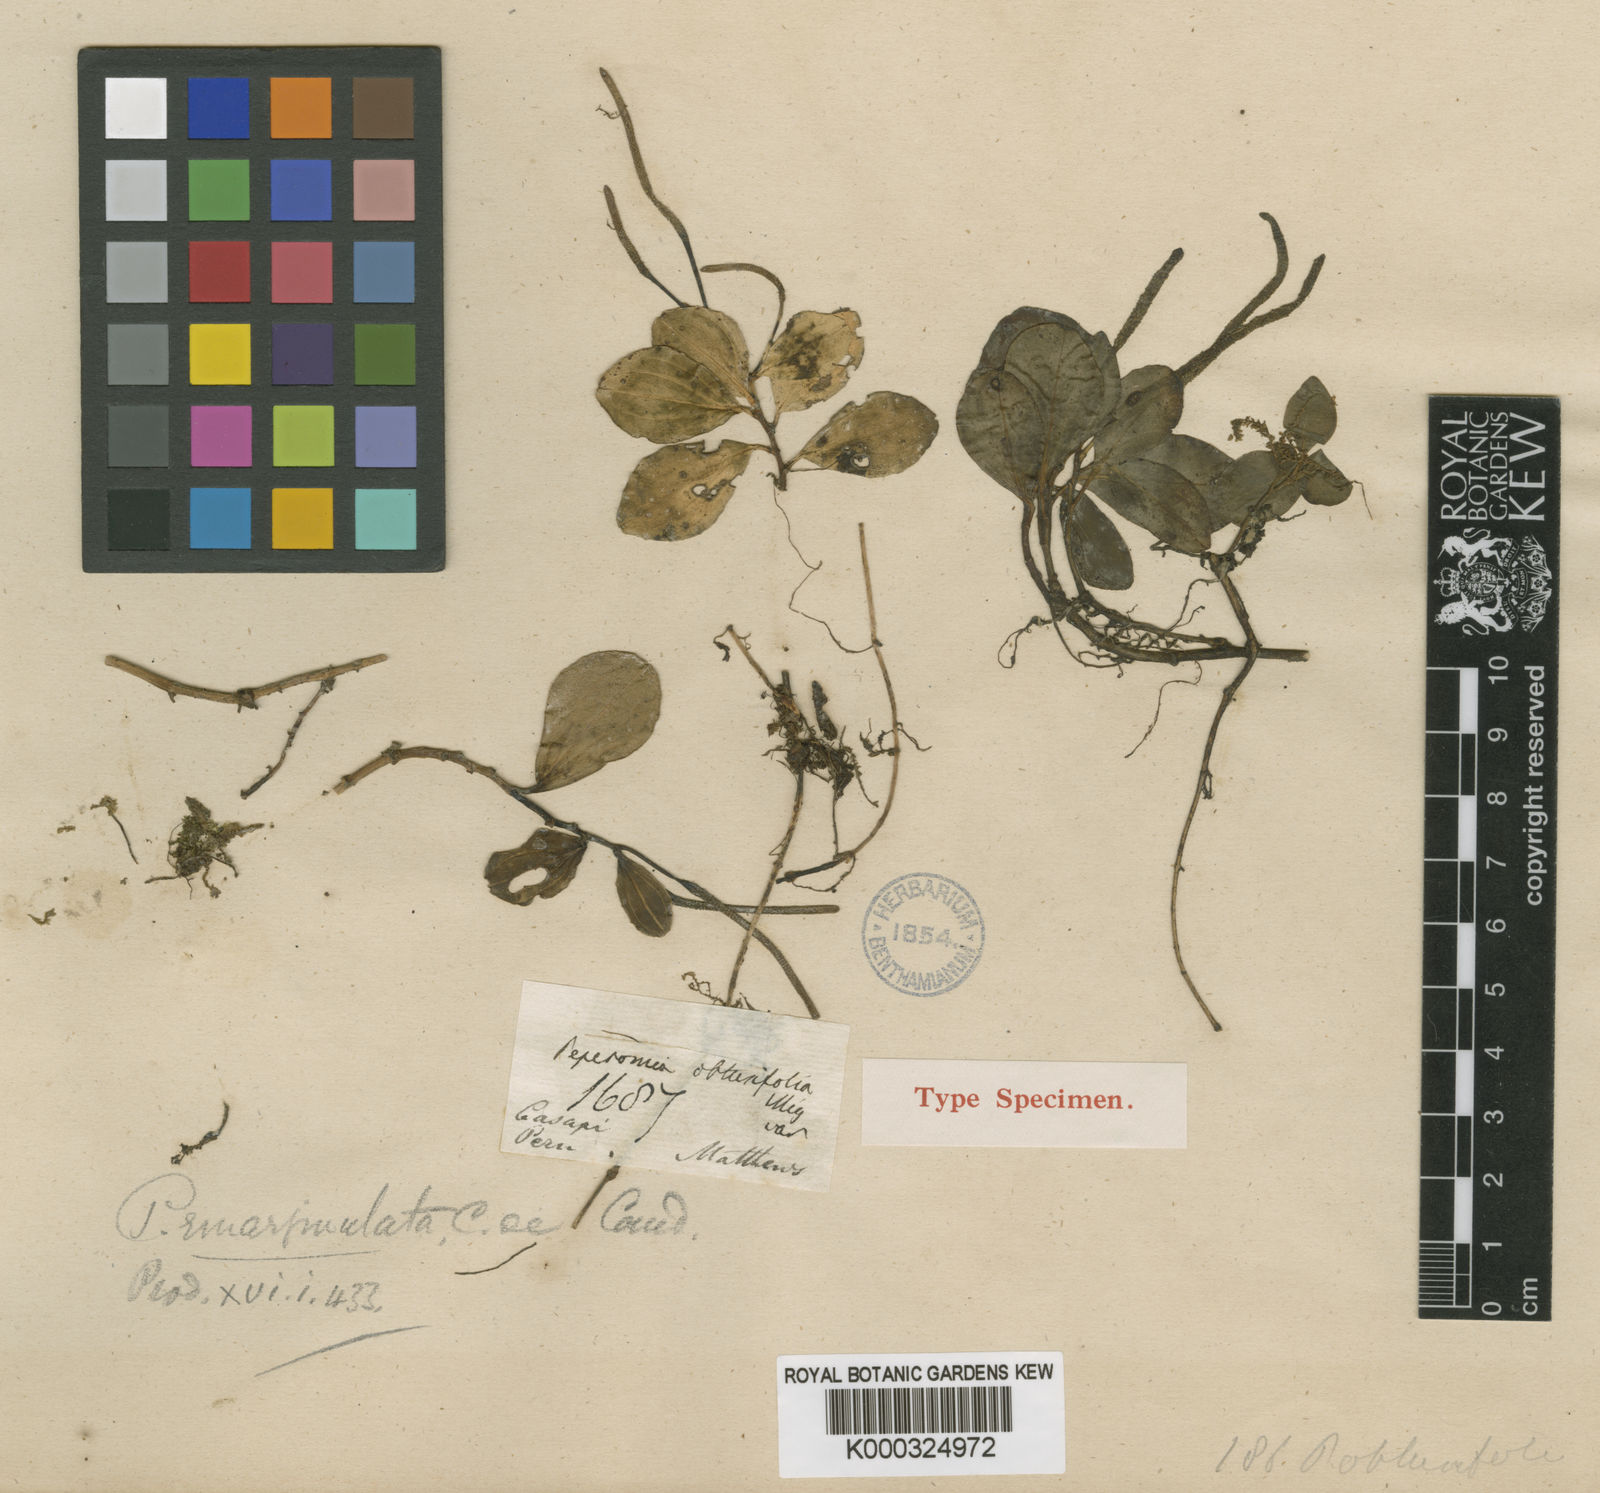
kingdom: Plantae
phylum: Tracheophyta
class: Magnoliopsida
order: Piperales
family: Piperaceae
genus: Peperomia
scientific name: Peperomia emarginata
